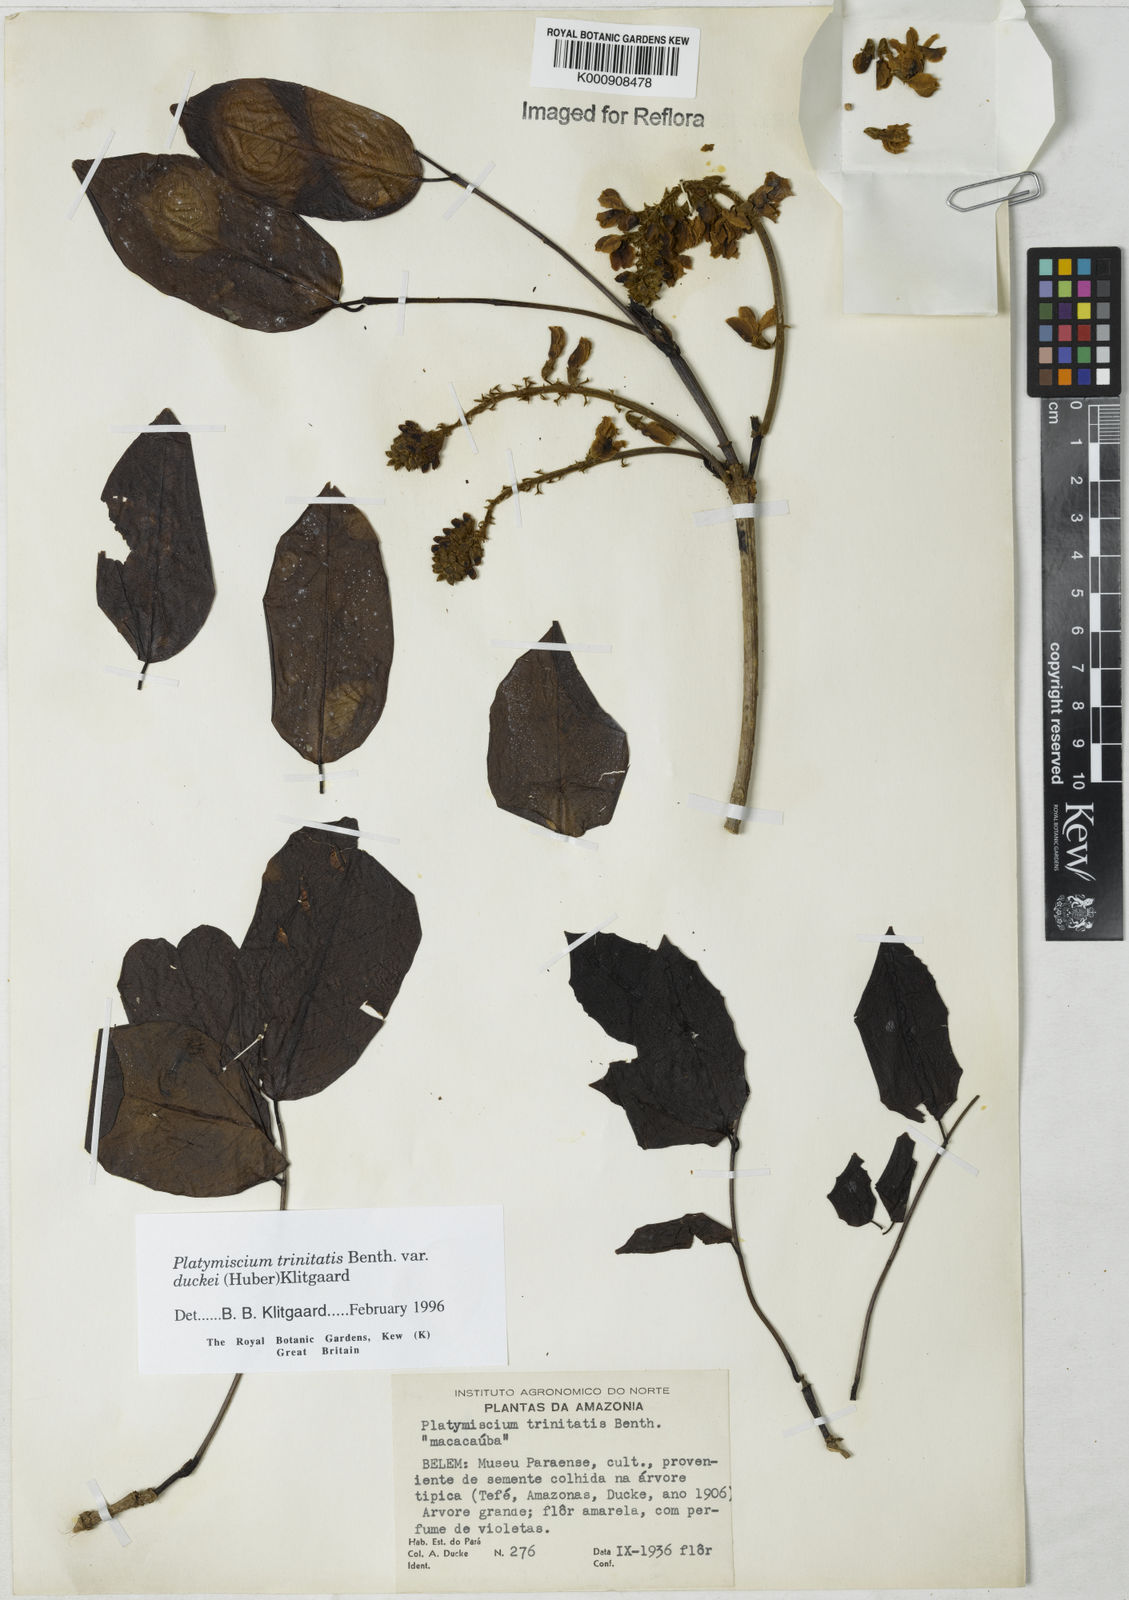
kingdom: Plantae
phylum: Tracheophyta
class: Magnoliopsida
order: Fabales
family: Fabaceae
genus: Platymiscium
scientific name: Platymiscium trinitatis
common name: Trinidad macawood
